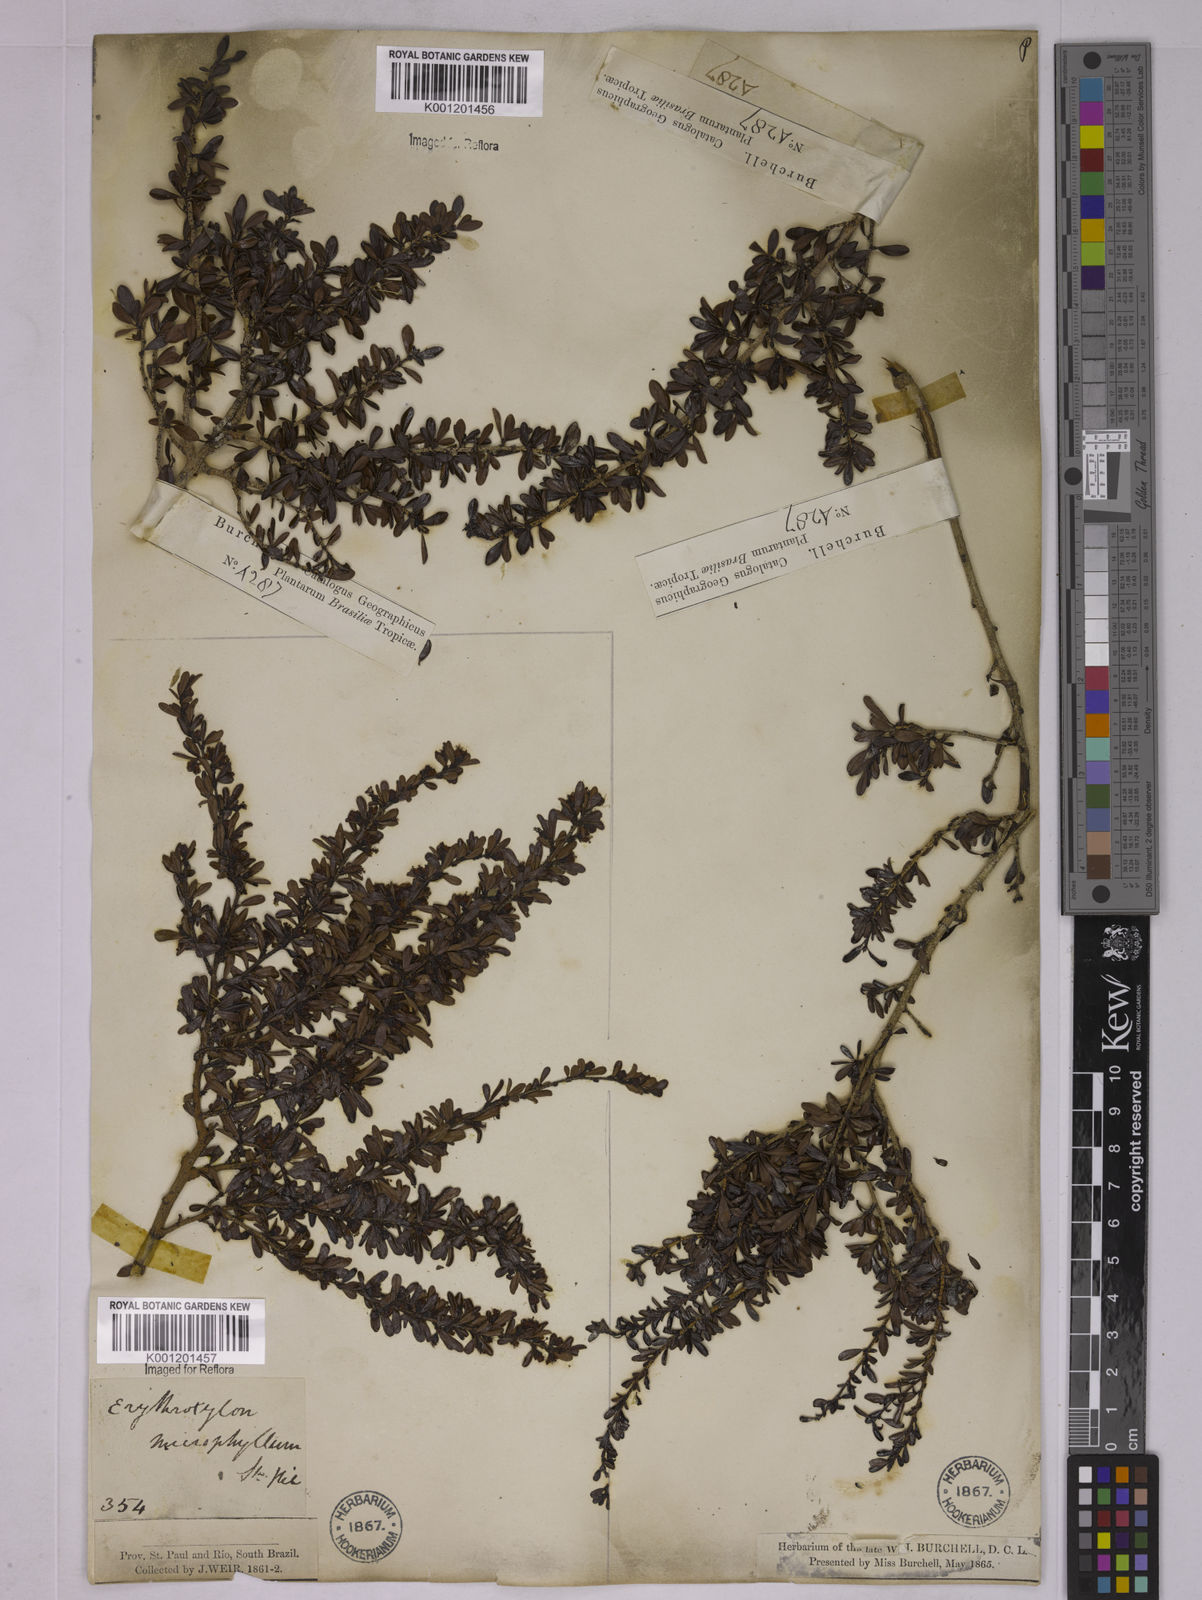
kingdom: Plantae
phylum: Tracheophyta
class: Magnoliopsida
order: Malpighiales
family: Erythroxylaceae
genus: Erythroxylum
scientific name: Erythroxylum microphyllum
